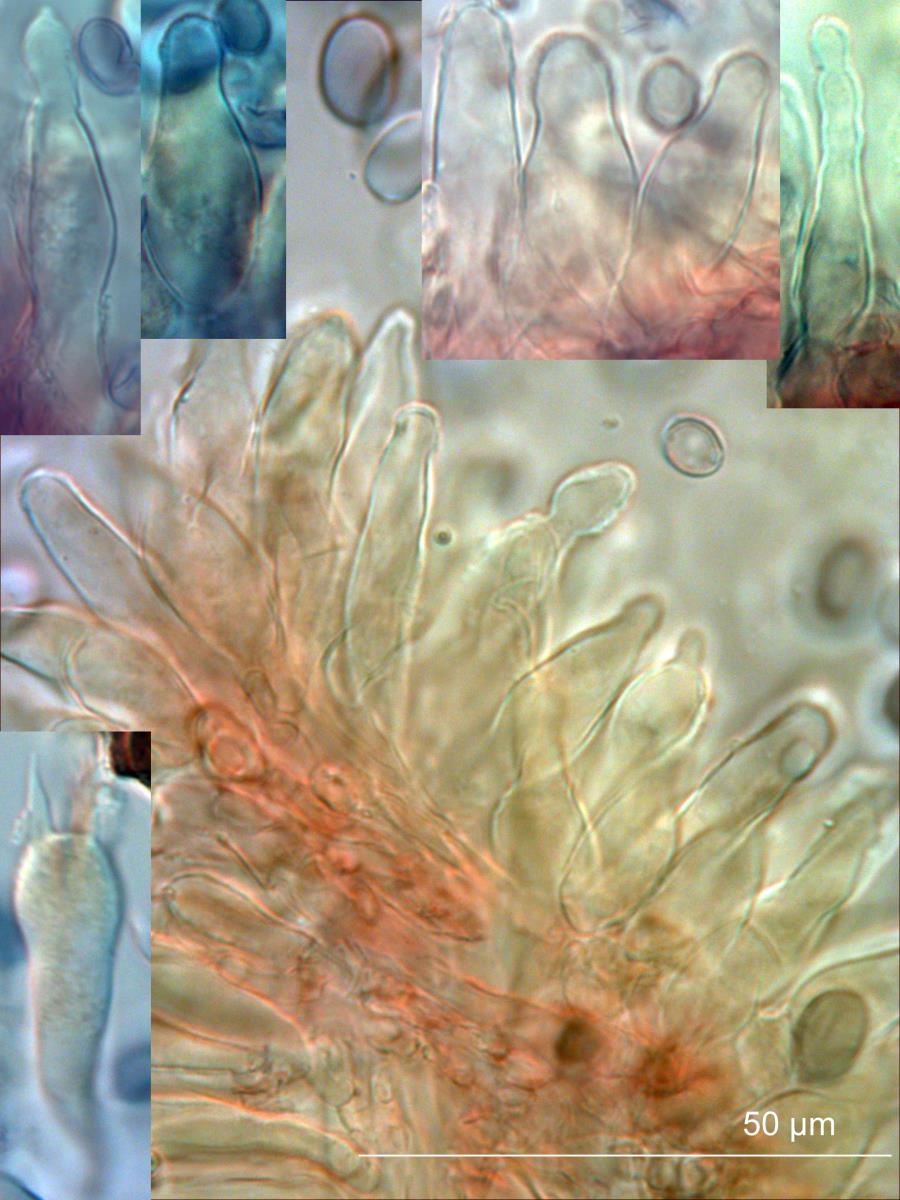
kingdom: Fungi
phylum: Basidiomycota
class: Agaricomycetes
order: Agaricales
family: Mycenaceae
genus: Mycena
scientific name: Mycena
